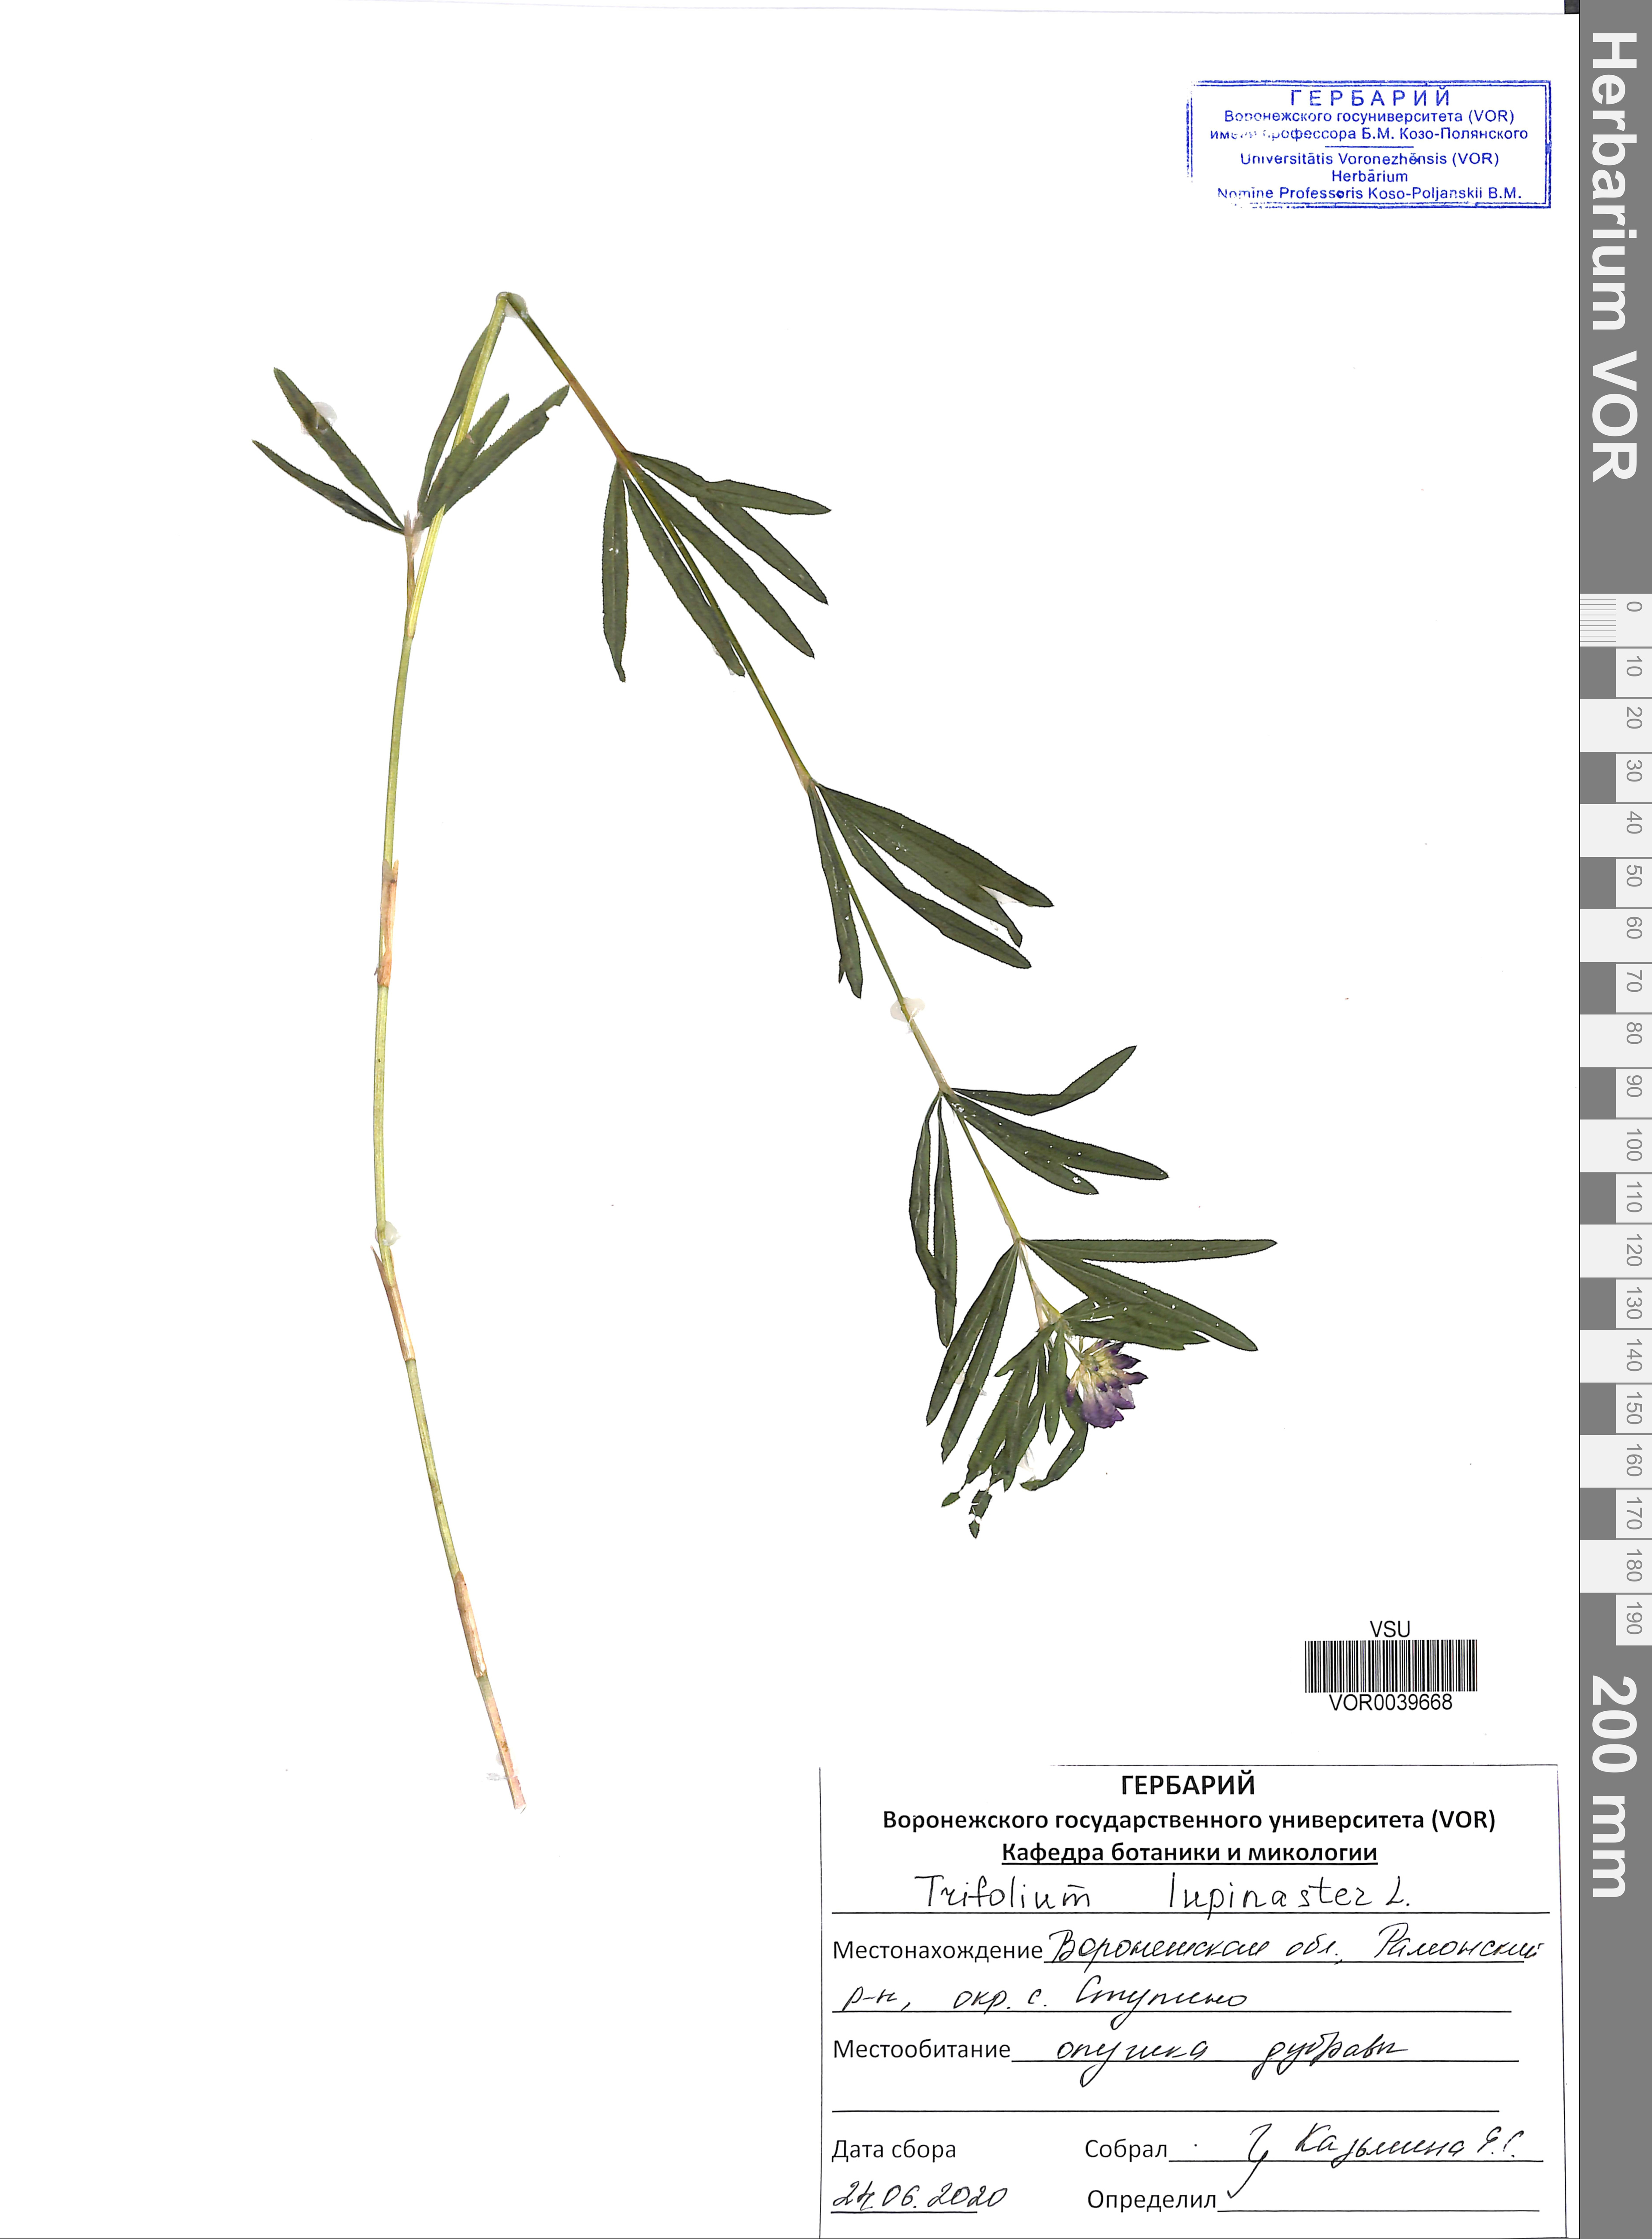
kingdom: Plantae
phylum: Tracheophyta
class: Magnoliopsida
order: Fabales
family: Fabaceae
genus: Trifolium
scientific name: Trifolium lupinaster
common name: Lupine clover
